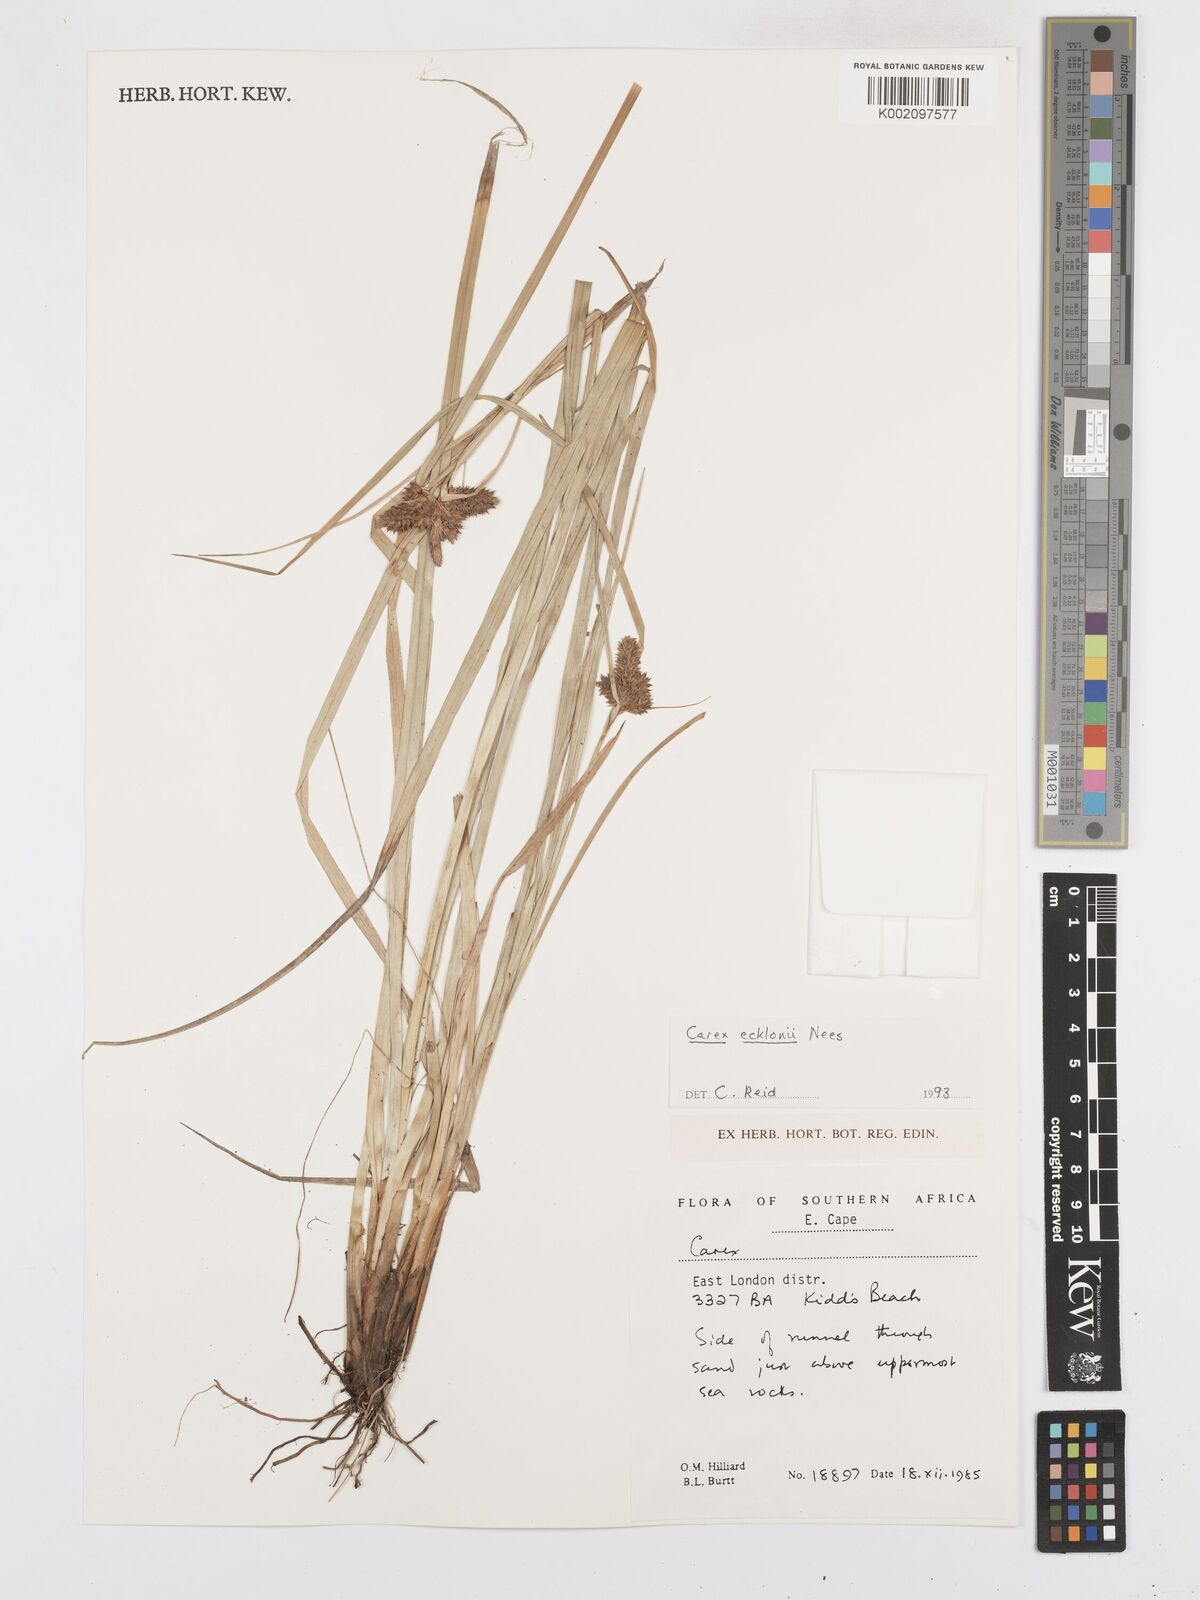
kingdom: Plantae
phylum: Tracheophyta
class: Liliopsida
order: Poales
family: Cyperaceae
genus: Carex
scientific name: Carex extensa
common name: Long-bracted sedge
